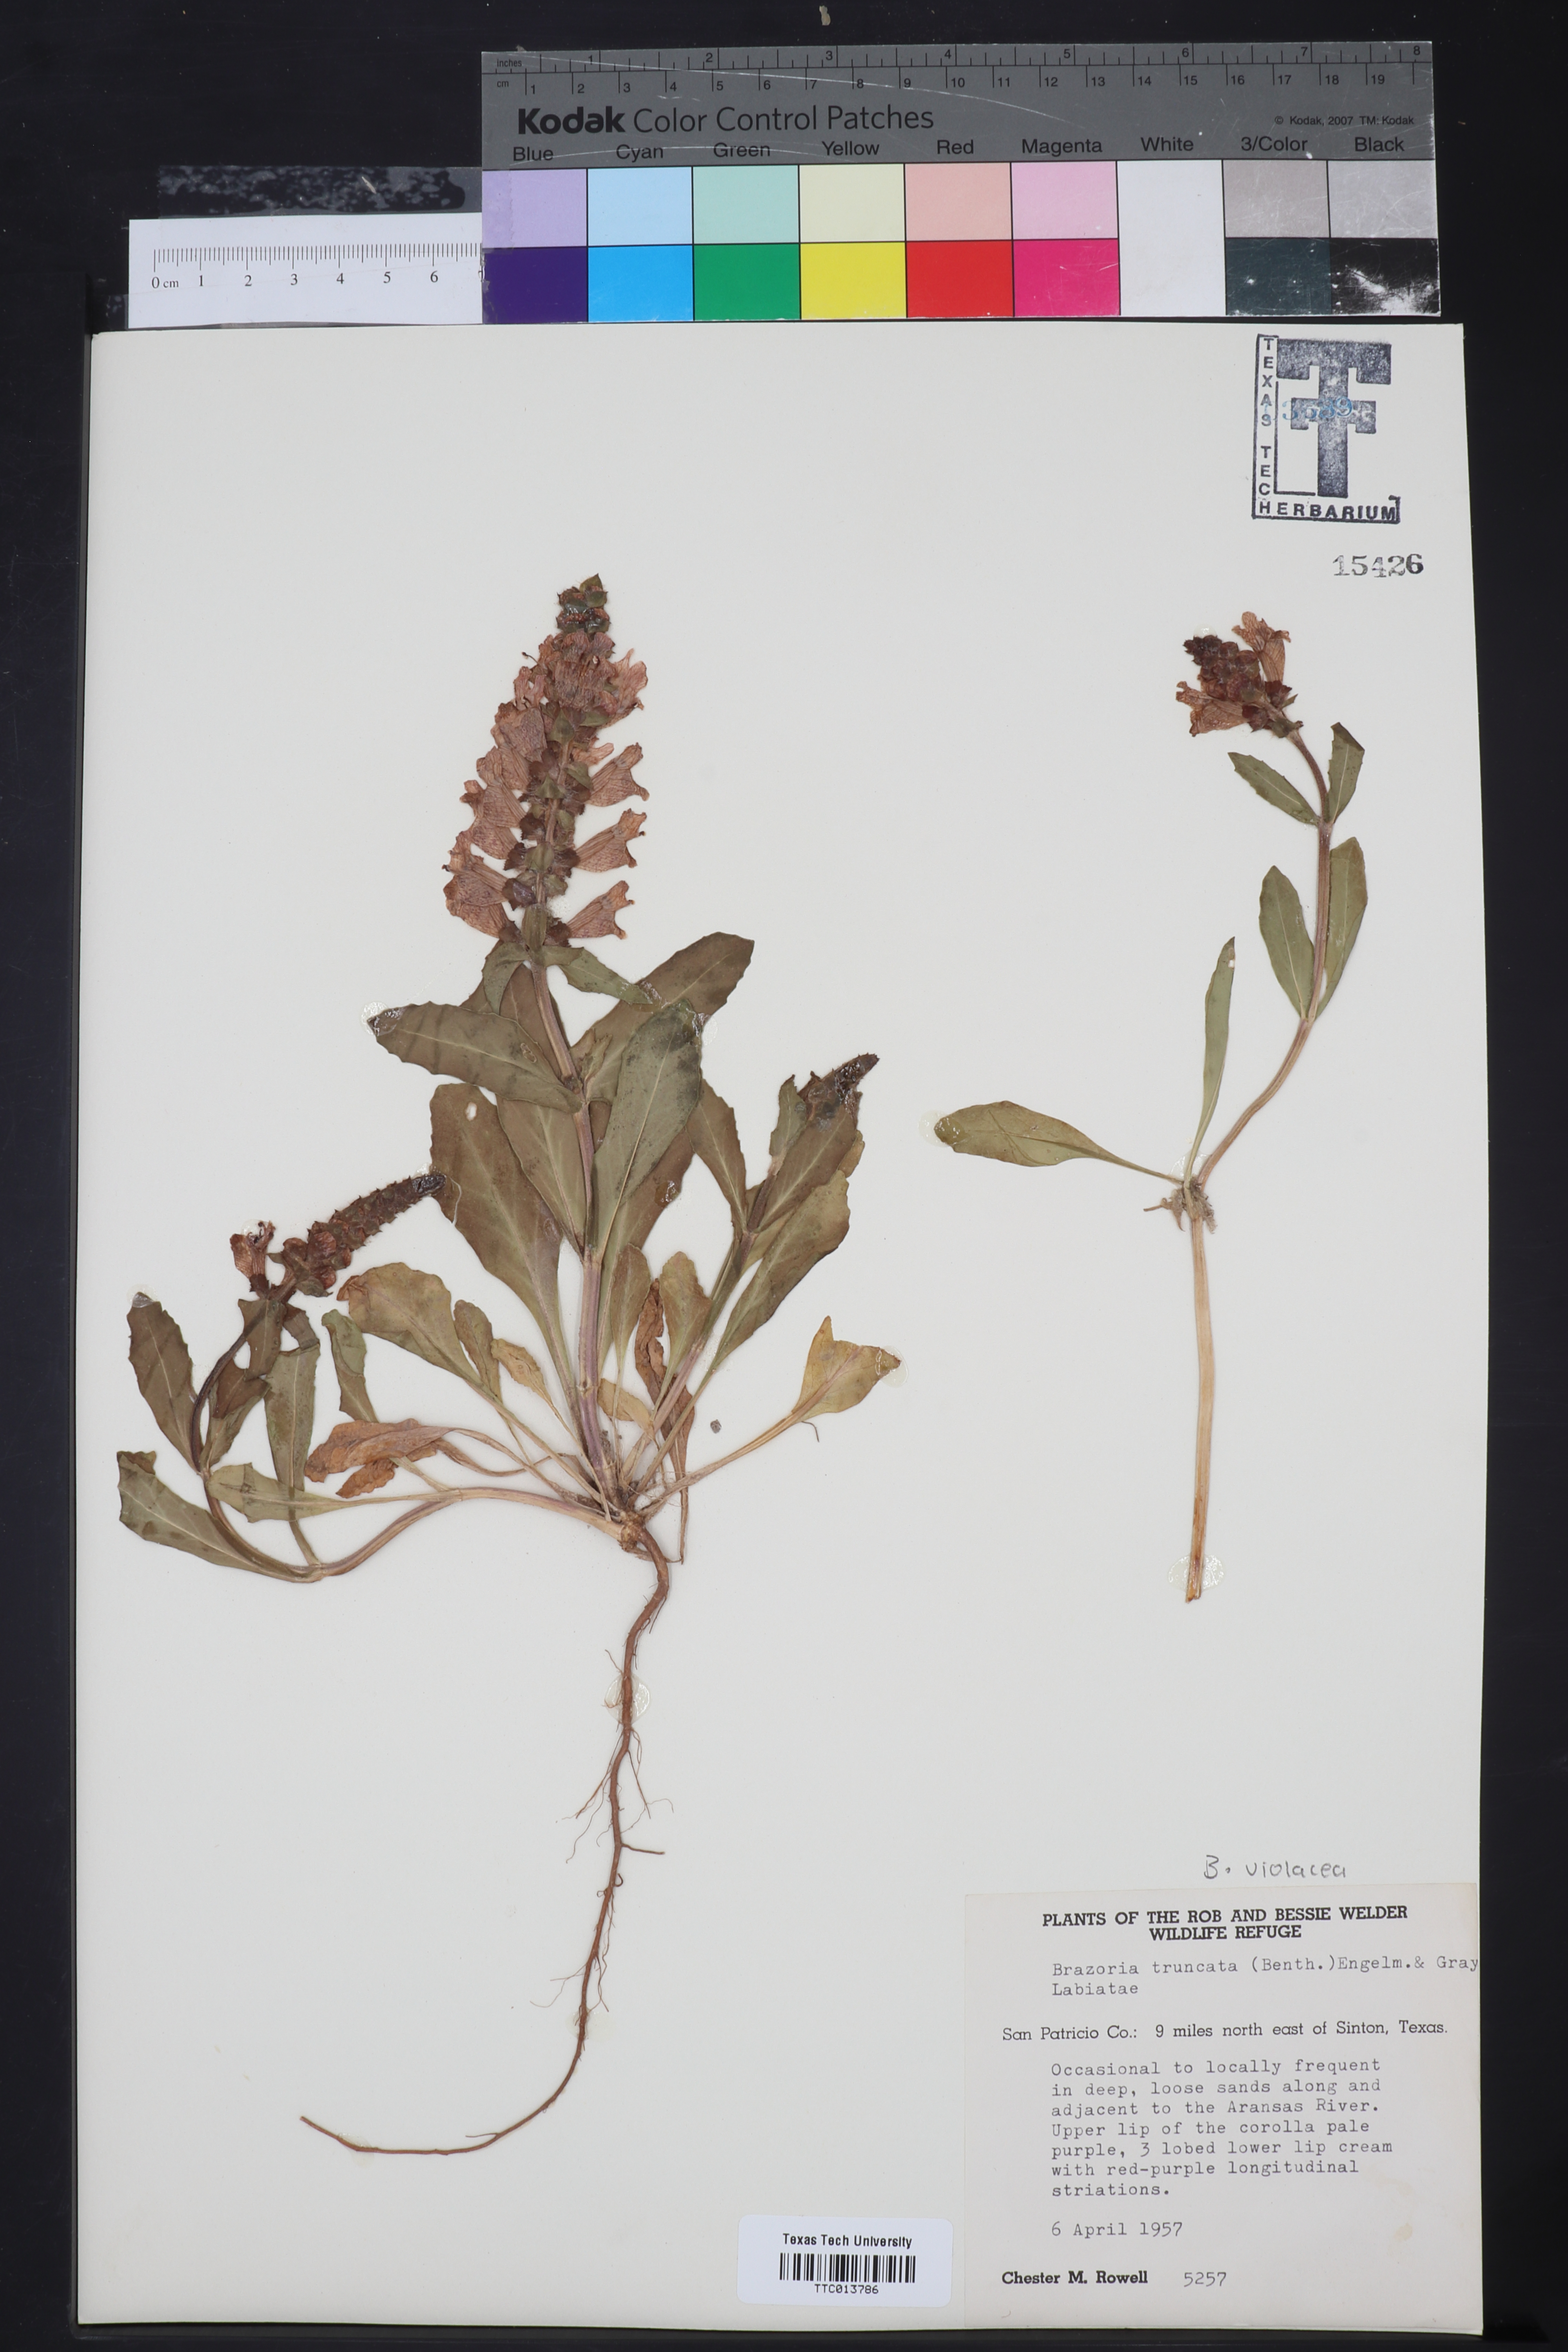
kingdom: Plantae
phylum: Tracheophyta
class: Magnoliopsida
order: Lamiales
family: Lamiaceae
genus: Brazoria
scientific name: Brazoria truncata
